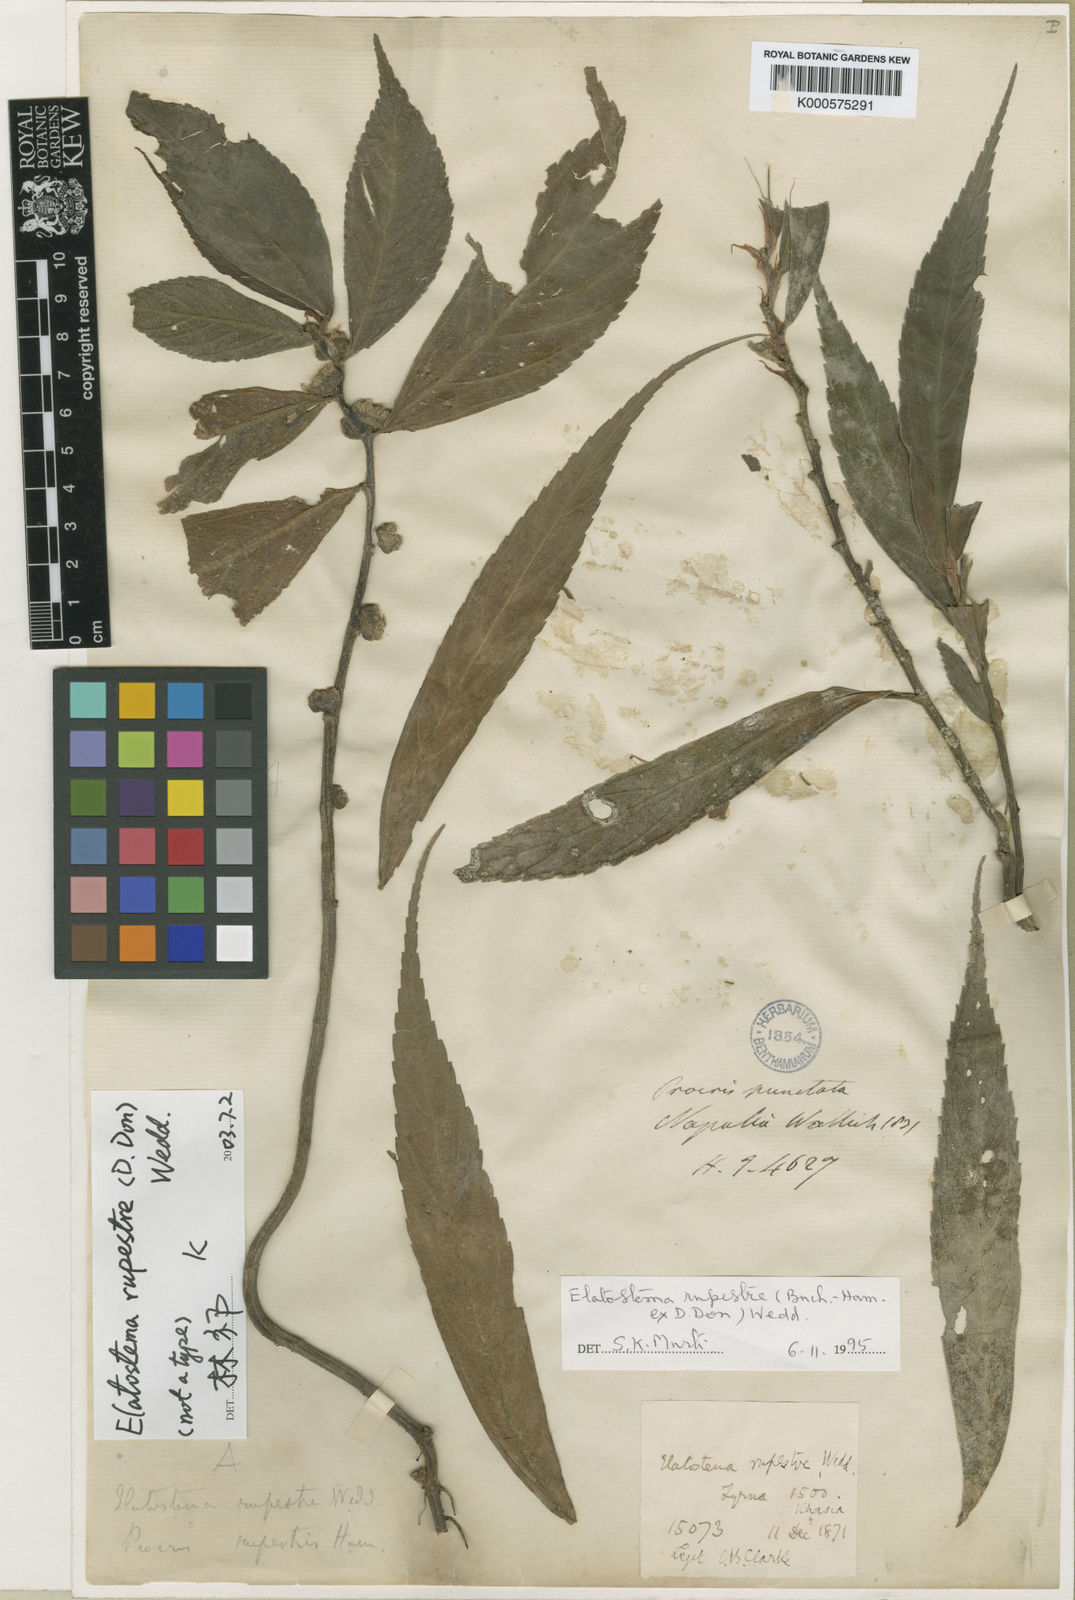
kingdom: Plantae
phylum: Tracheophyta
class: Magnoliopsida
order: Rosales
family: Urticaceae
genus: Elatostema
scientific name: Elatostema rupestre
